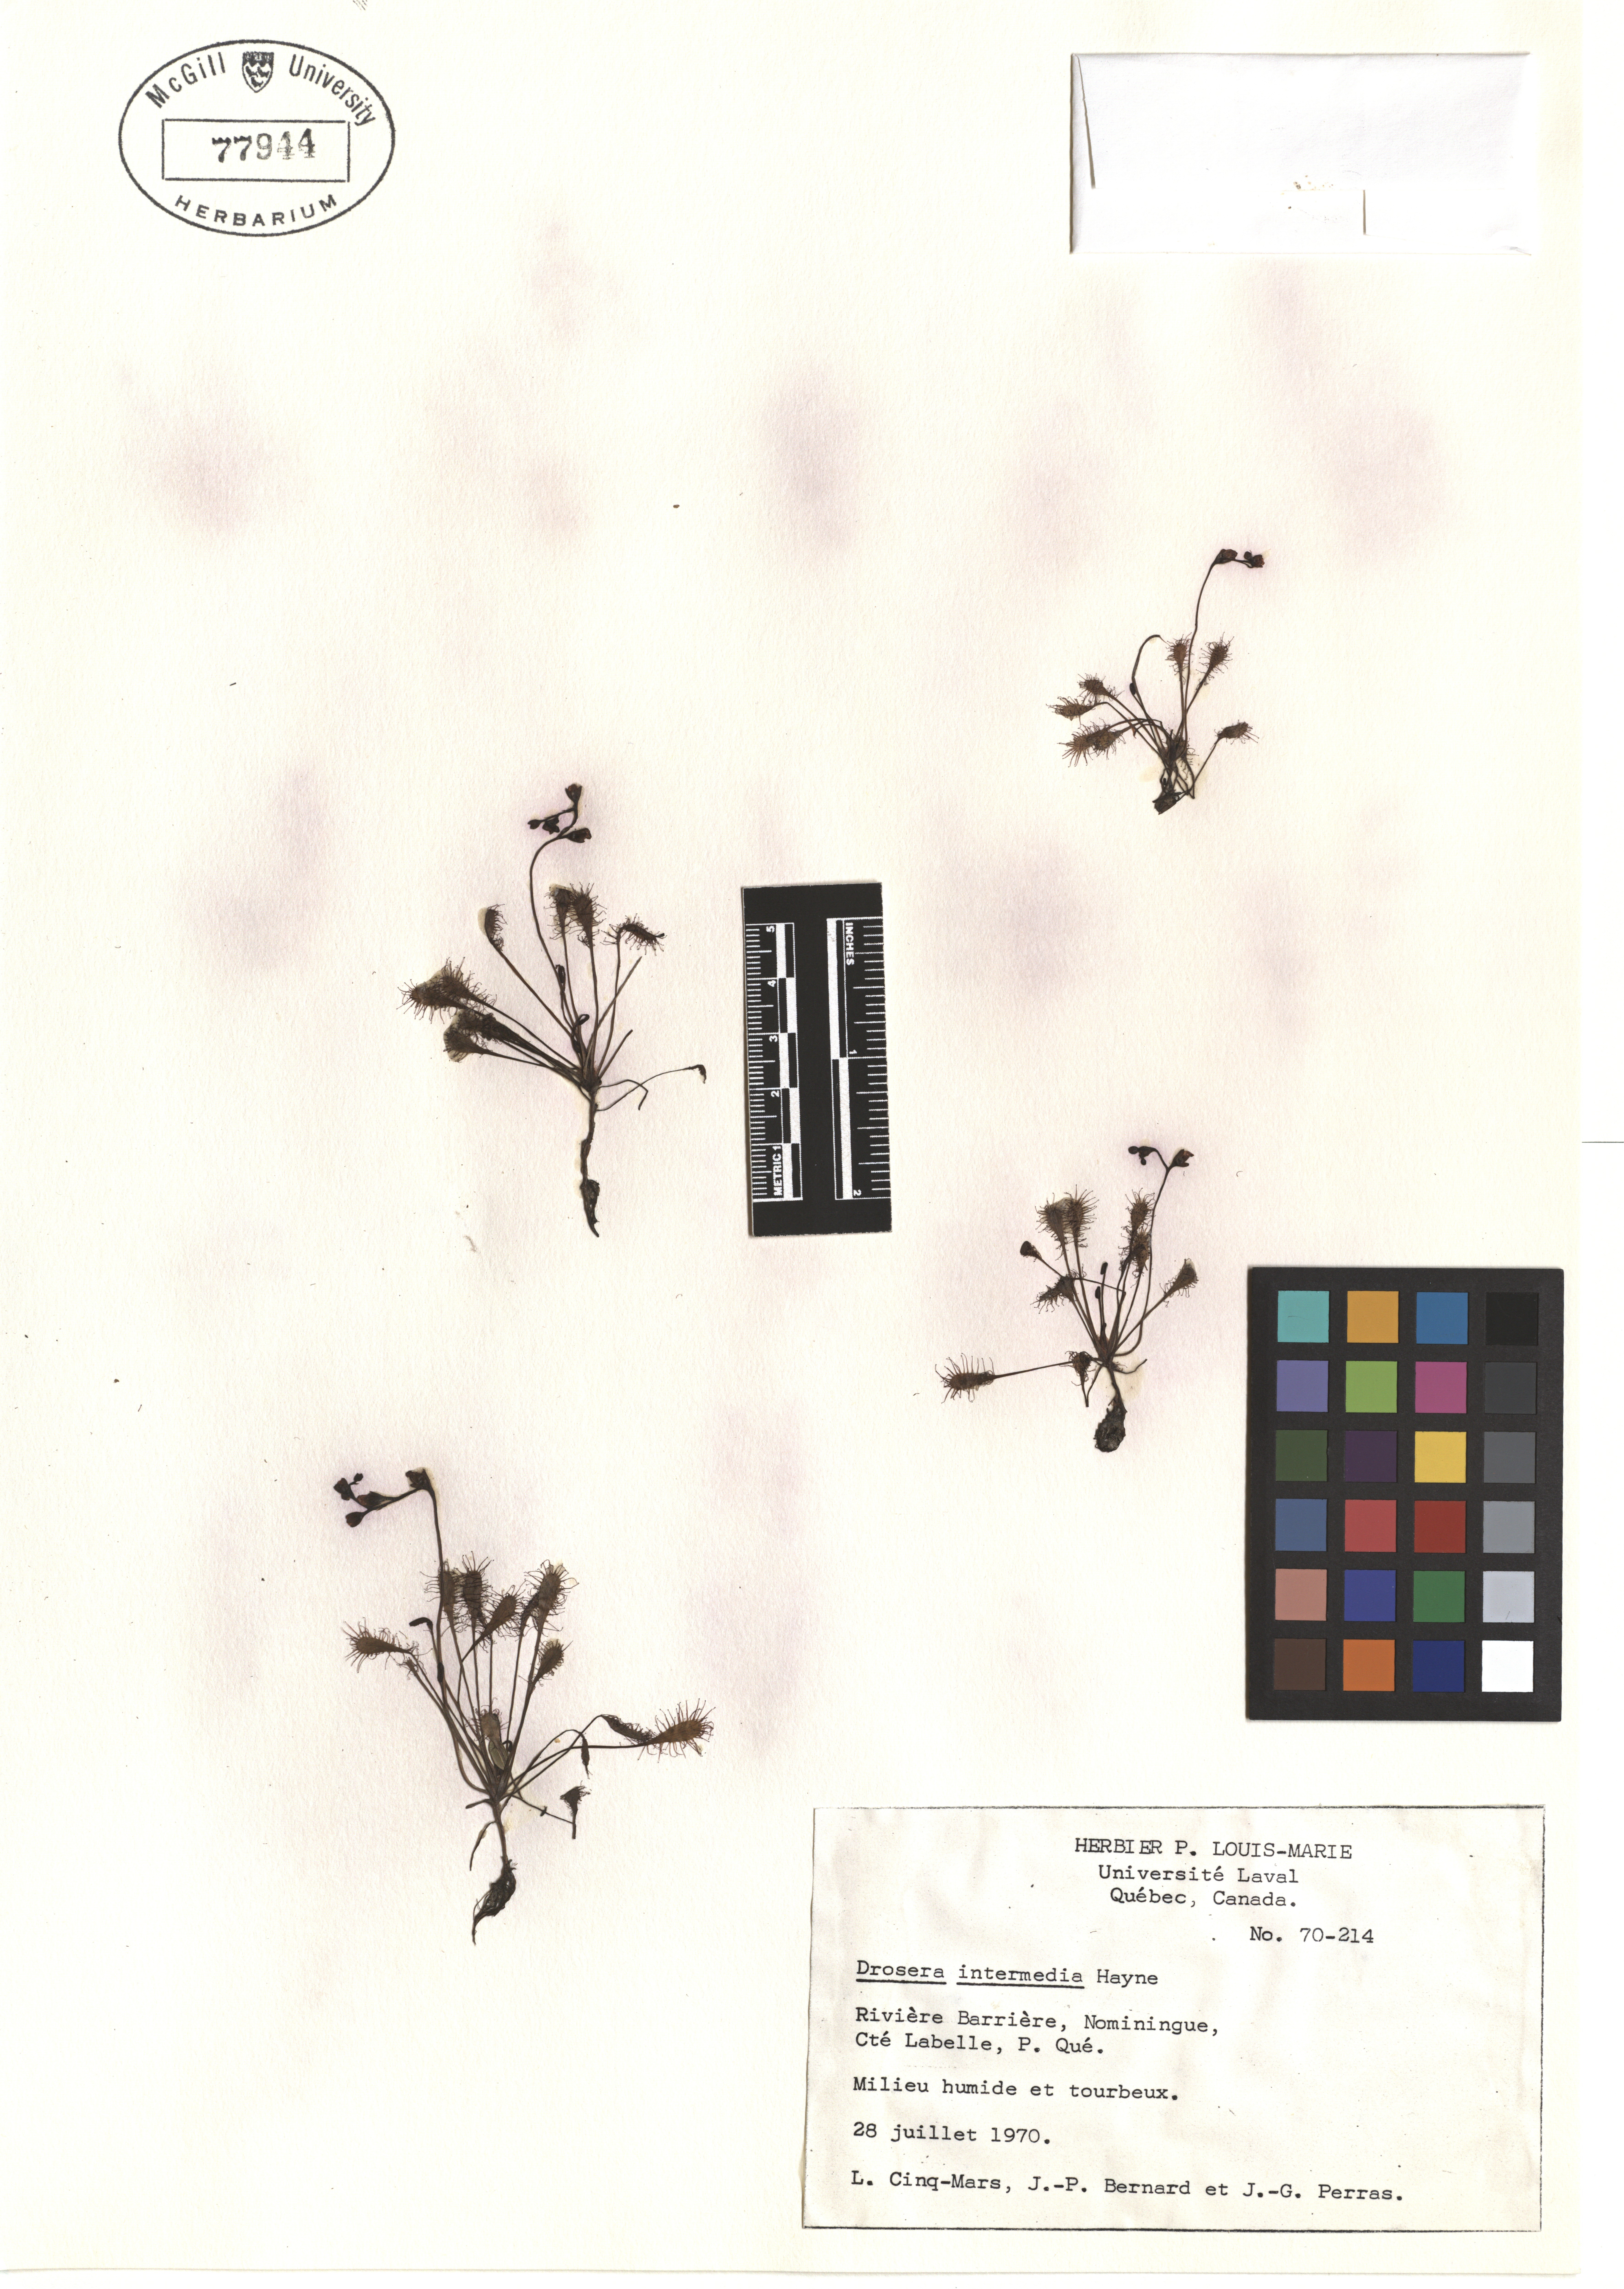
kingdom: Plantae
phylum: Tracheophyta
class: Magnoliopsida
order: Caryophyllales
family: Droseraceae
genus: Drosera
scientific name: Drosera intermedia
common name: Oblong-leaved sundew
